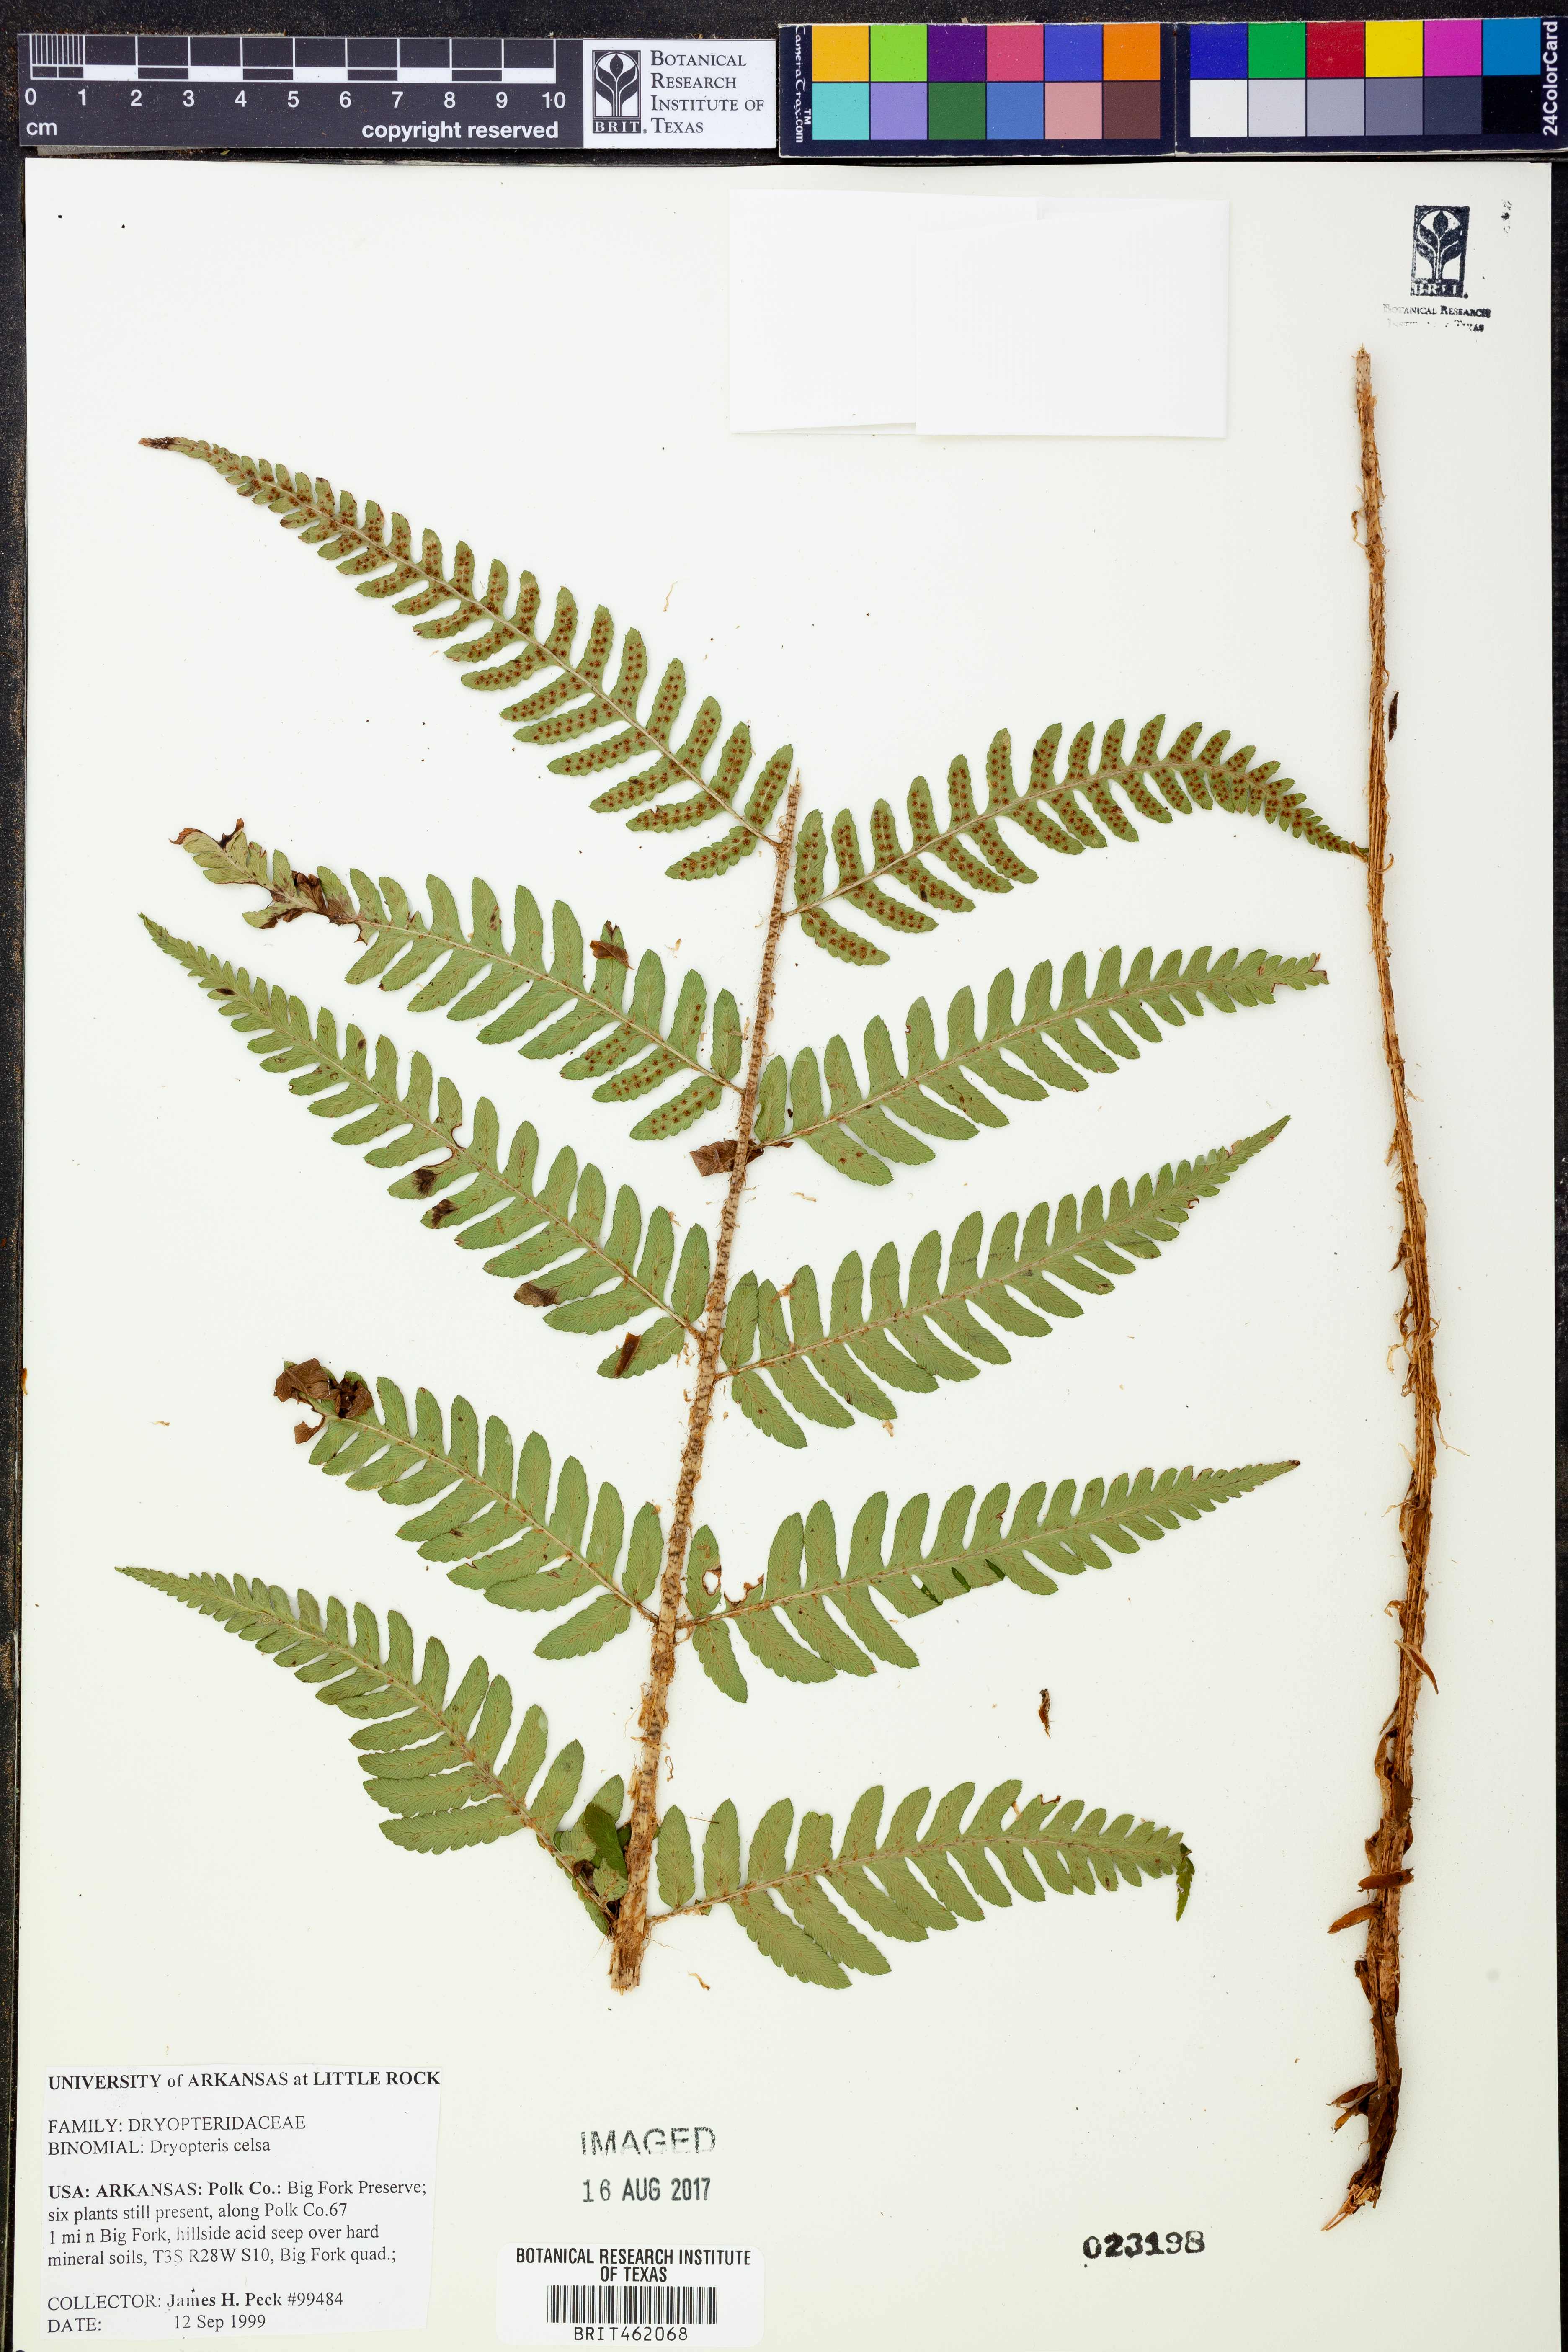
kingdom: Plantae
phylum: Tracheophyta
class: Polypodiopsida
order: Polypodiales
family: Dryopteridaceae
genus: Dryopteris
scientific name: Dryopteris celsa
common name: Log fern
